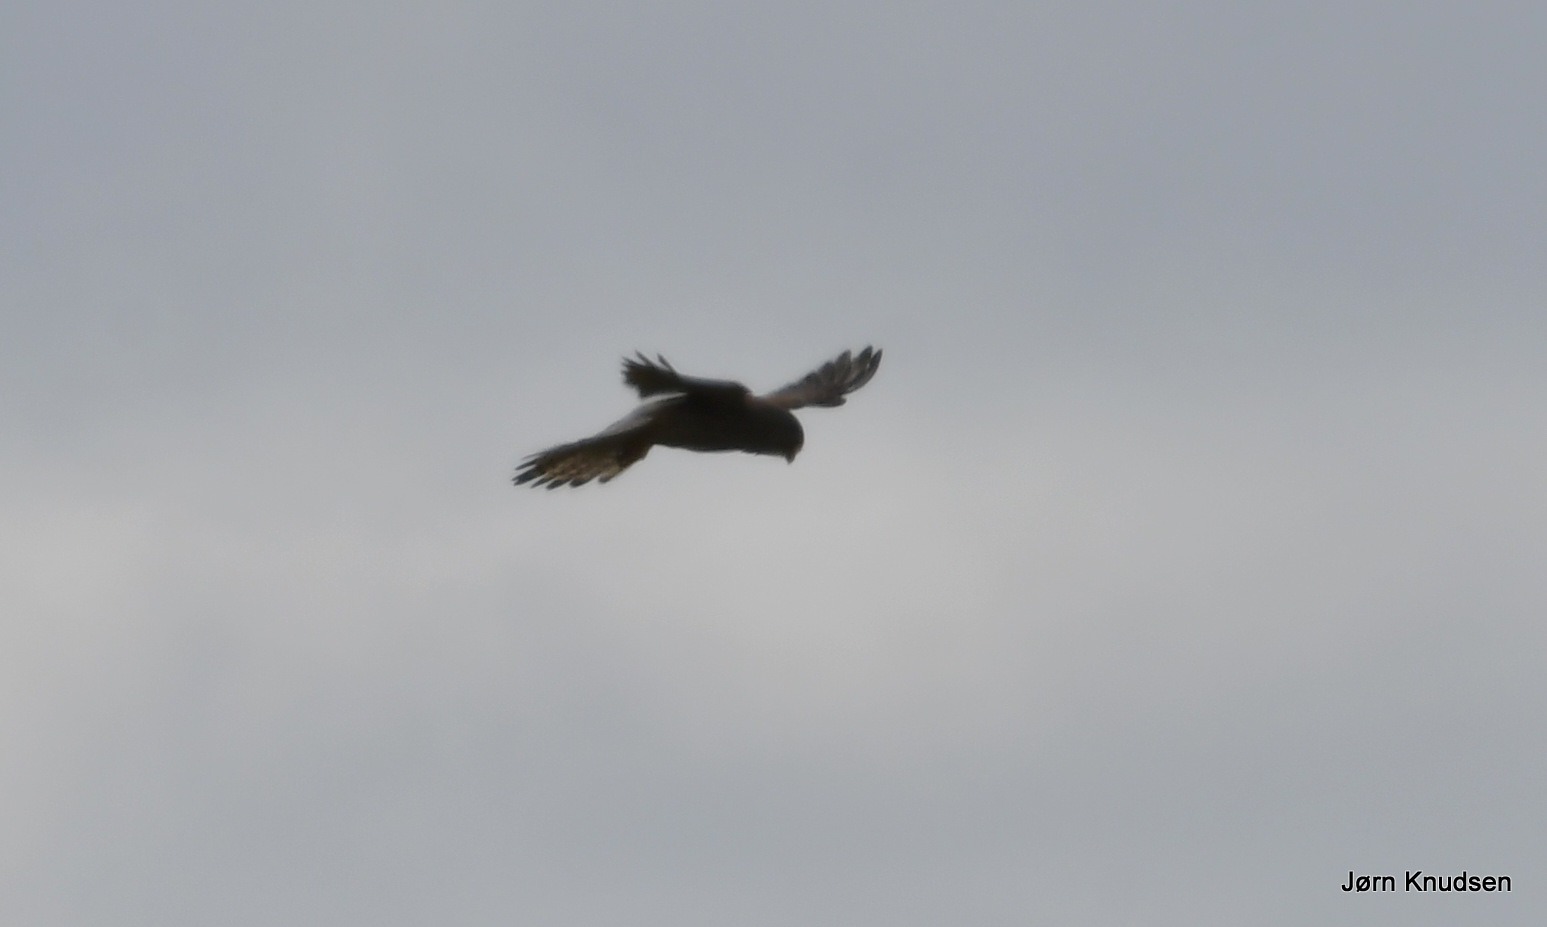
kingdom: Animalia
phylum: Chordata
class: Aves
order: Falconiformes
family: Falconidae
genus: Falco
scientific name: Falco tinnunculus
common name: Tårnfalk
